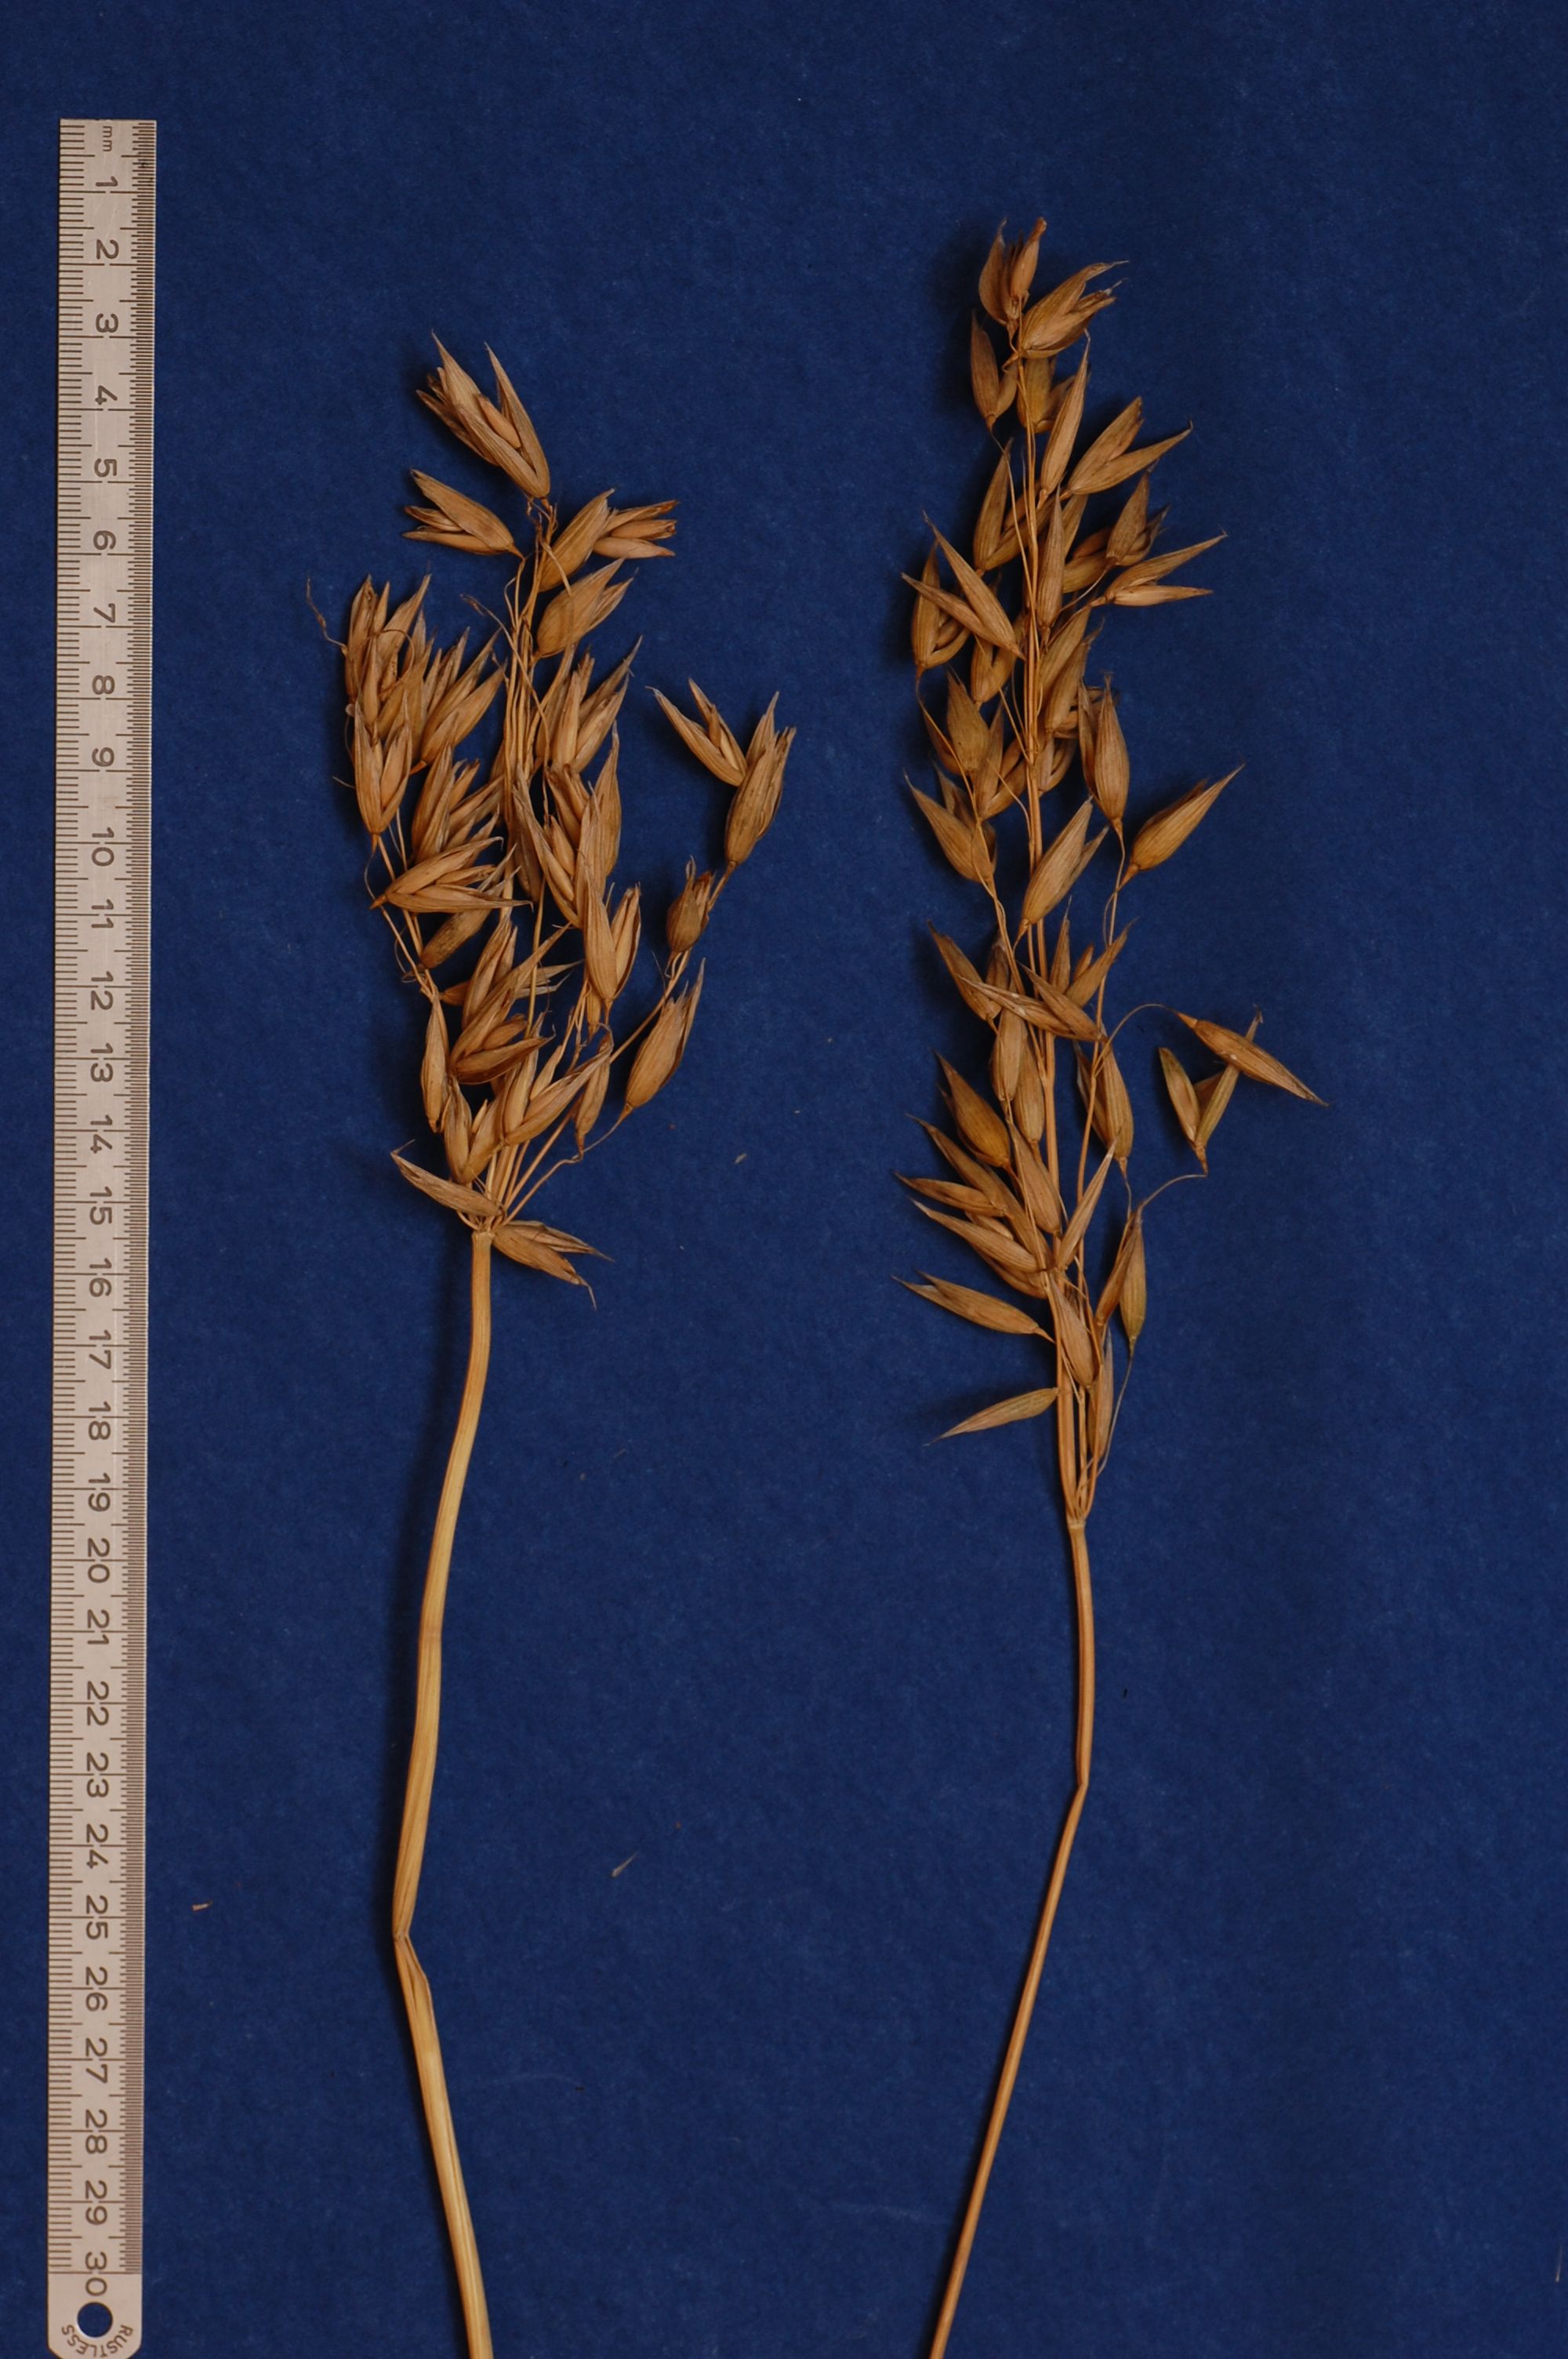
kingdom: Plantae
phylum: Tracheophyta
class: Liliopsida
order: Poales
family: Poaceae
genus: Avena
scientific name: Avena sativa
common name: Oat
